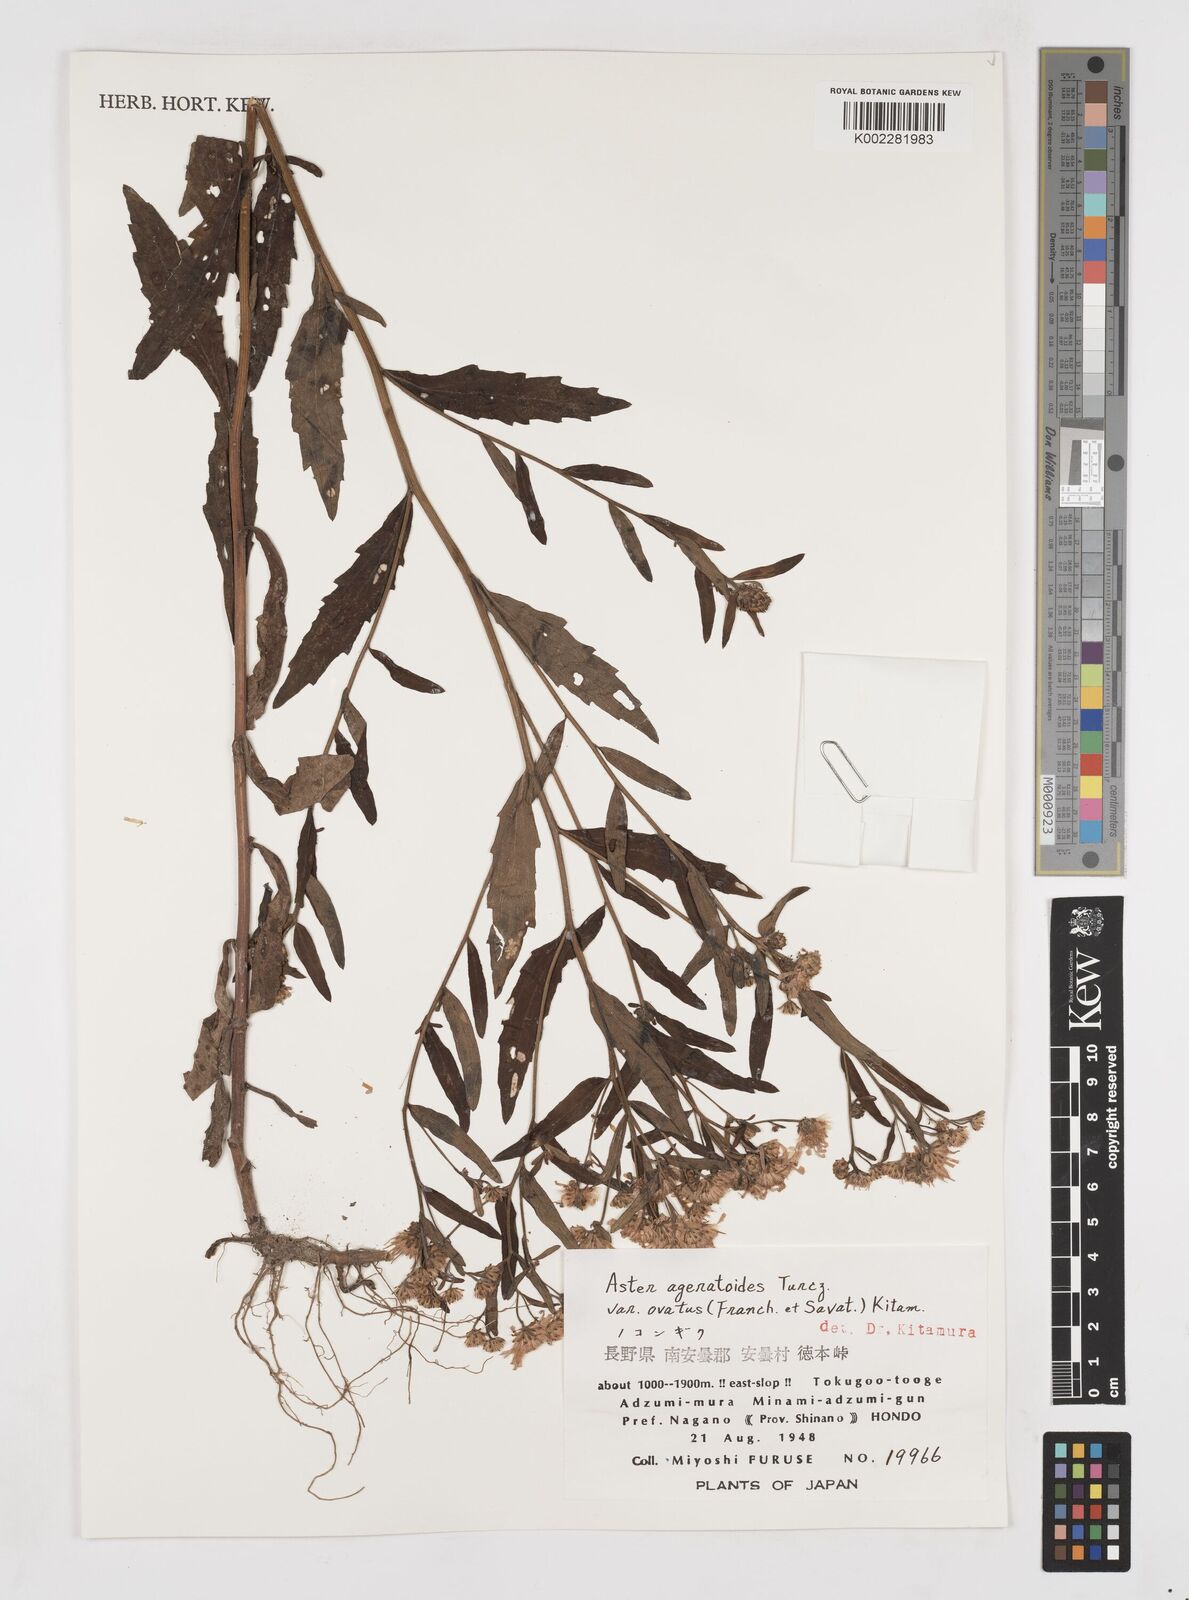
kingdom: Plantae
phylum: Tracheophyta
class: Magnoliopsida
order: Asterales
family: Asteraceae
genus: Aster
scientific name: Aster trinervius
